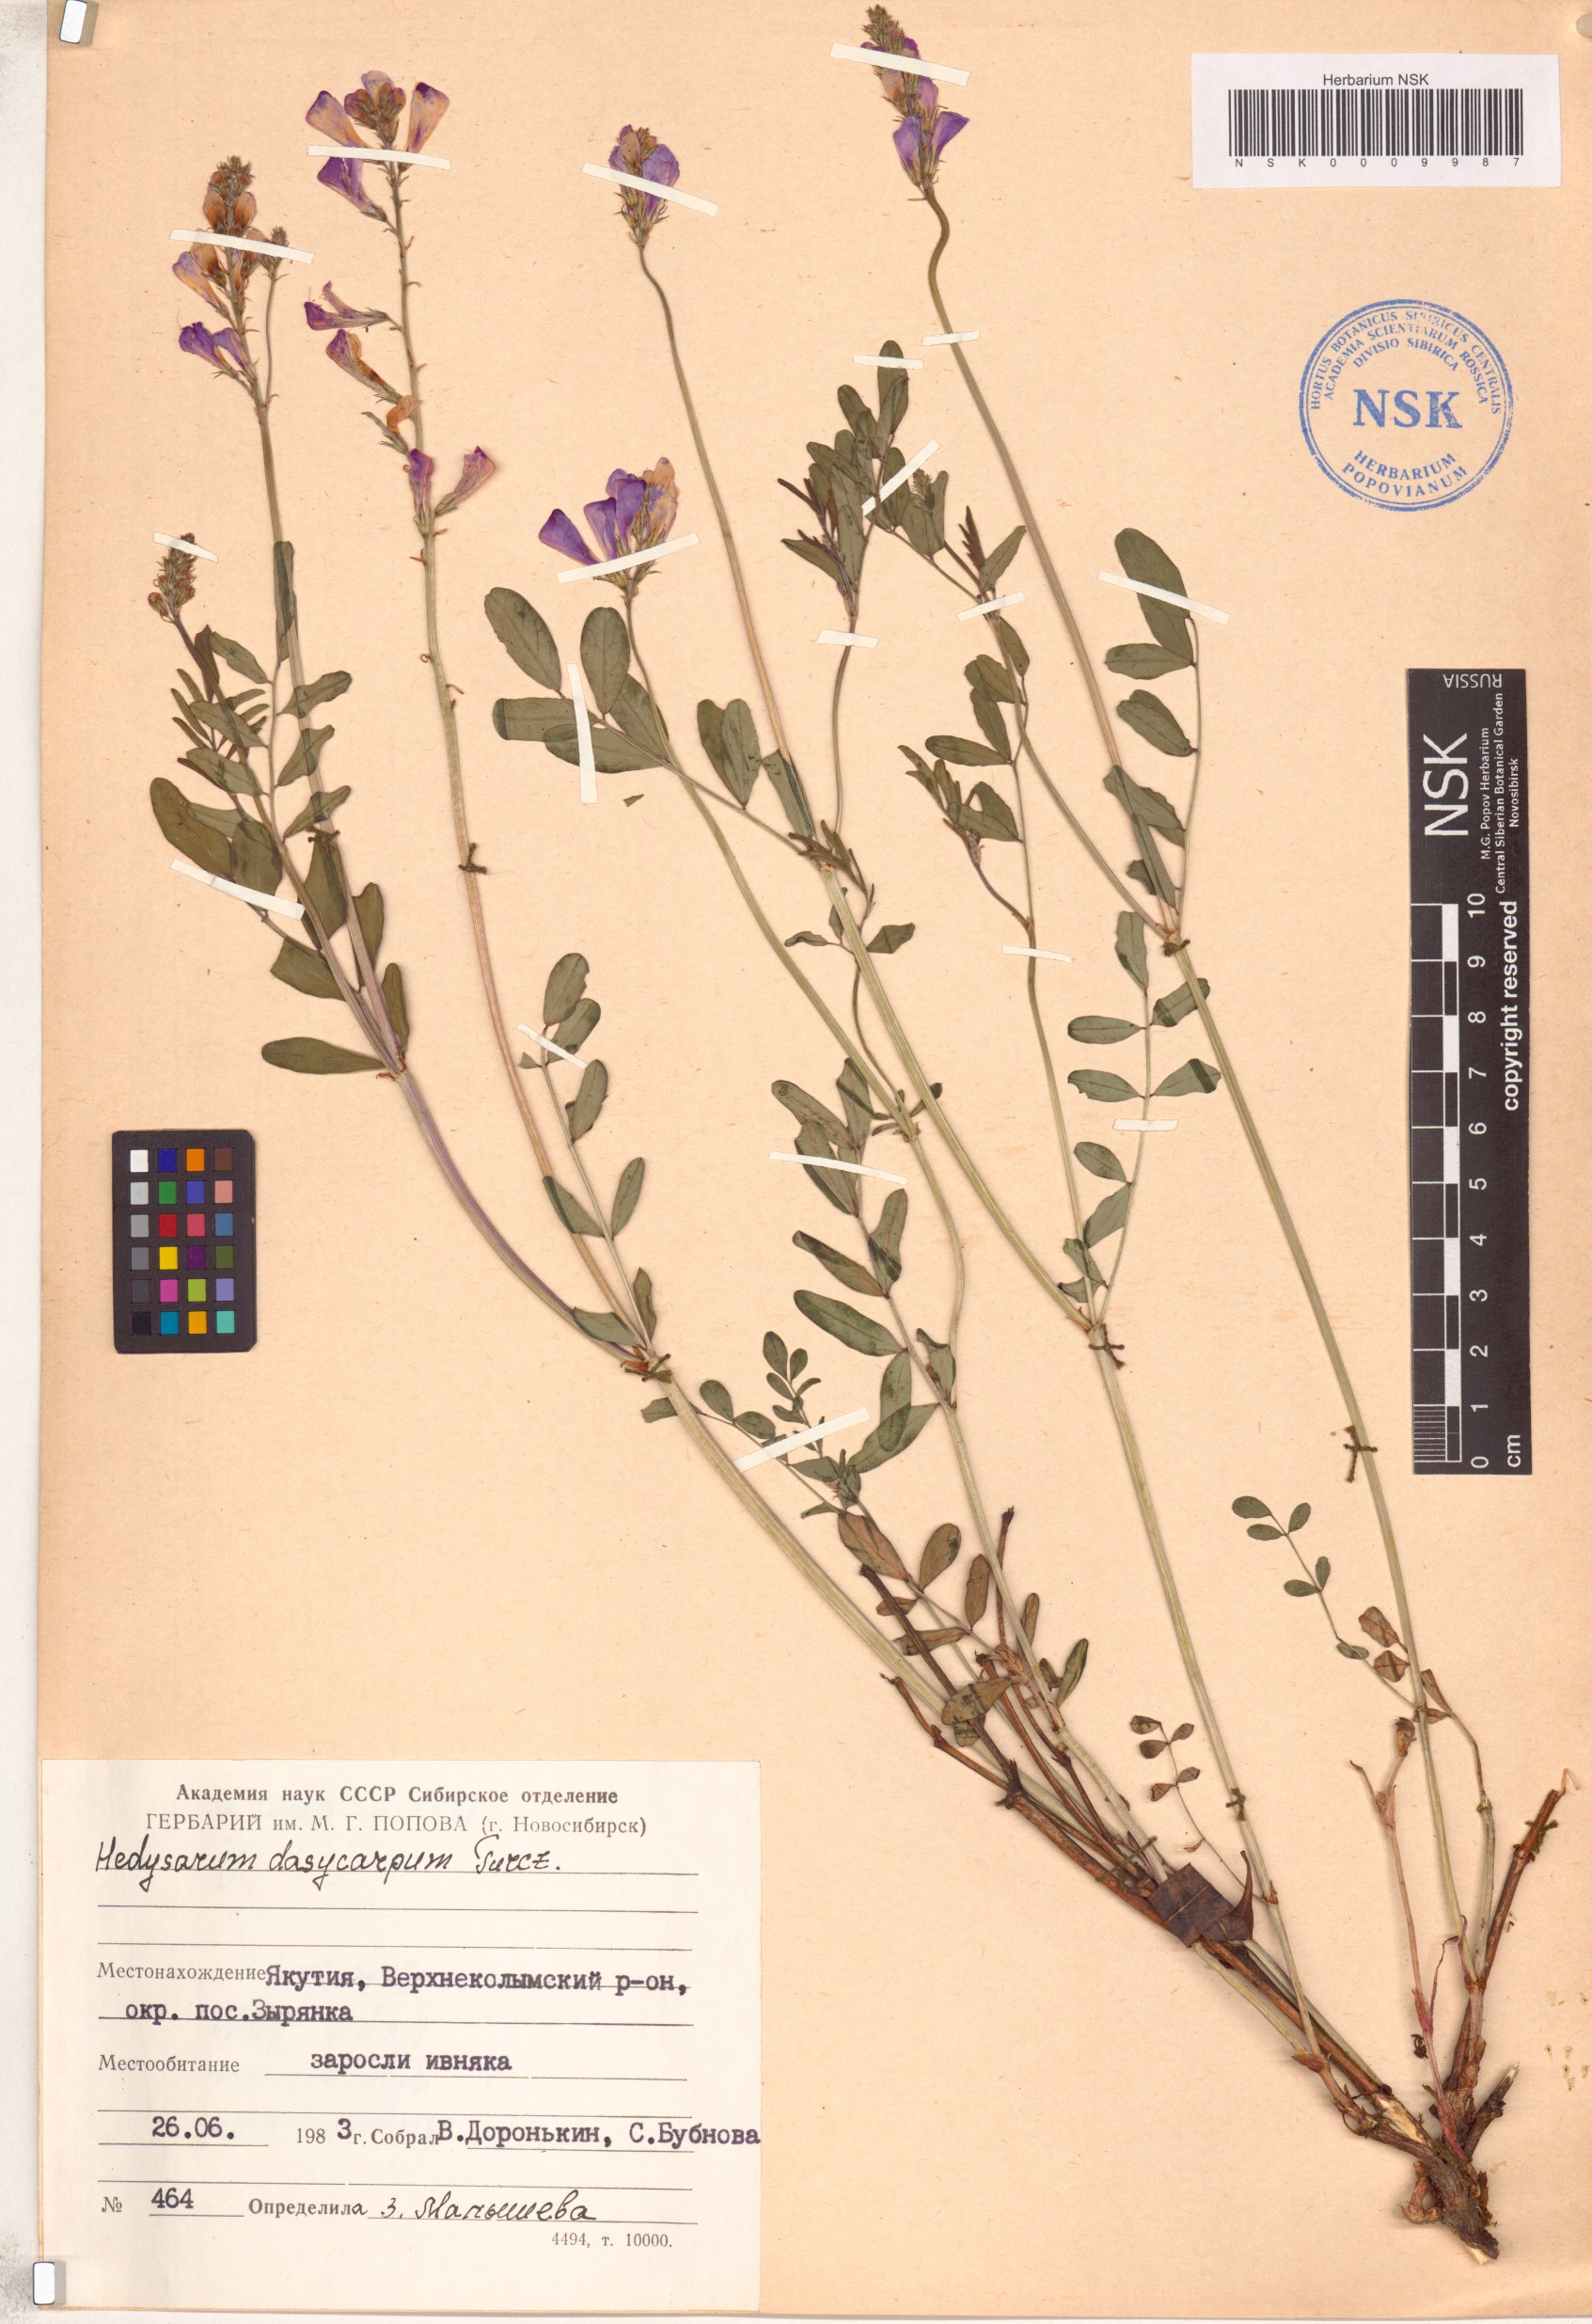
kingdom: Plantae
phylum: Tracheophyta
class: Magnoliopsida
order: Fabales
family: Fabaceae
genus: Hedysarum
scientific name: Hedysarum dasycarpum
